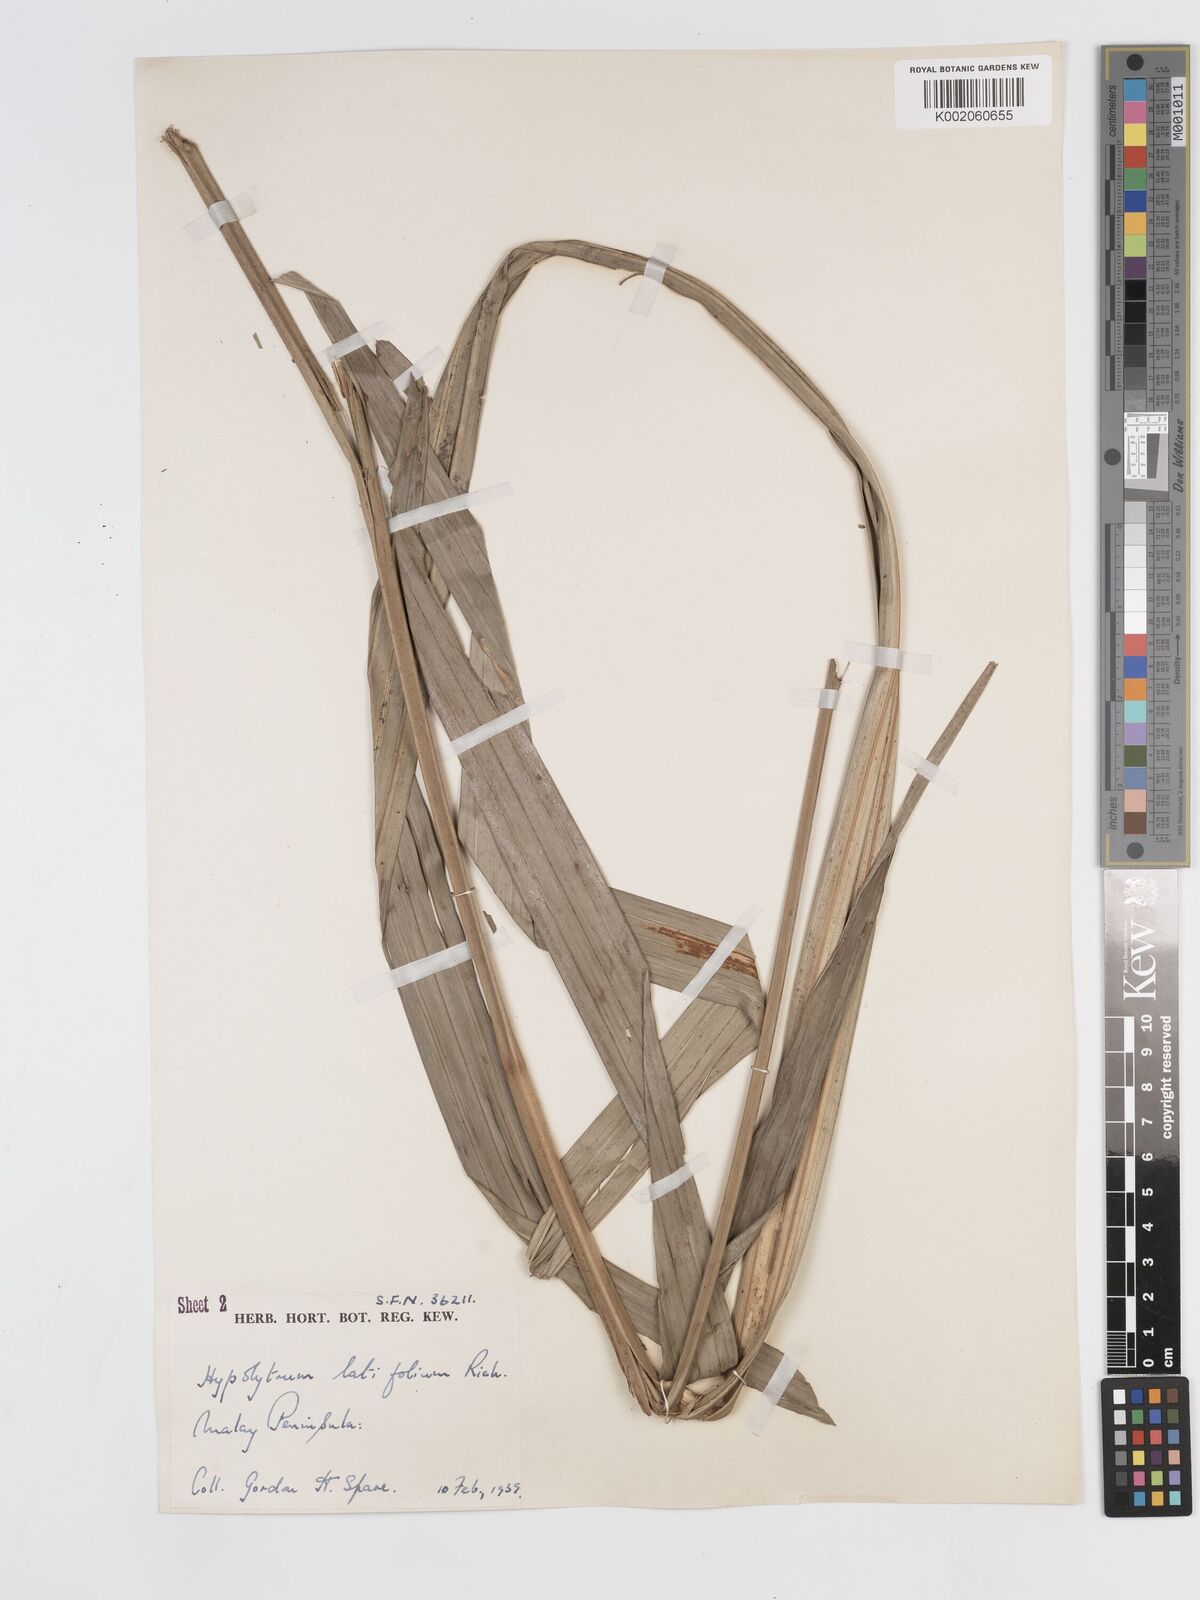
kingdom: Plantae
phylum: Tracheophyta
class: Liliopsida
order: Poales
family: Cyperaceae
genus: Hypolytrum
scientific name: Hypolytrum nemorum
